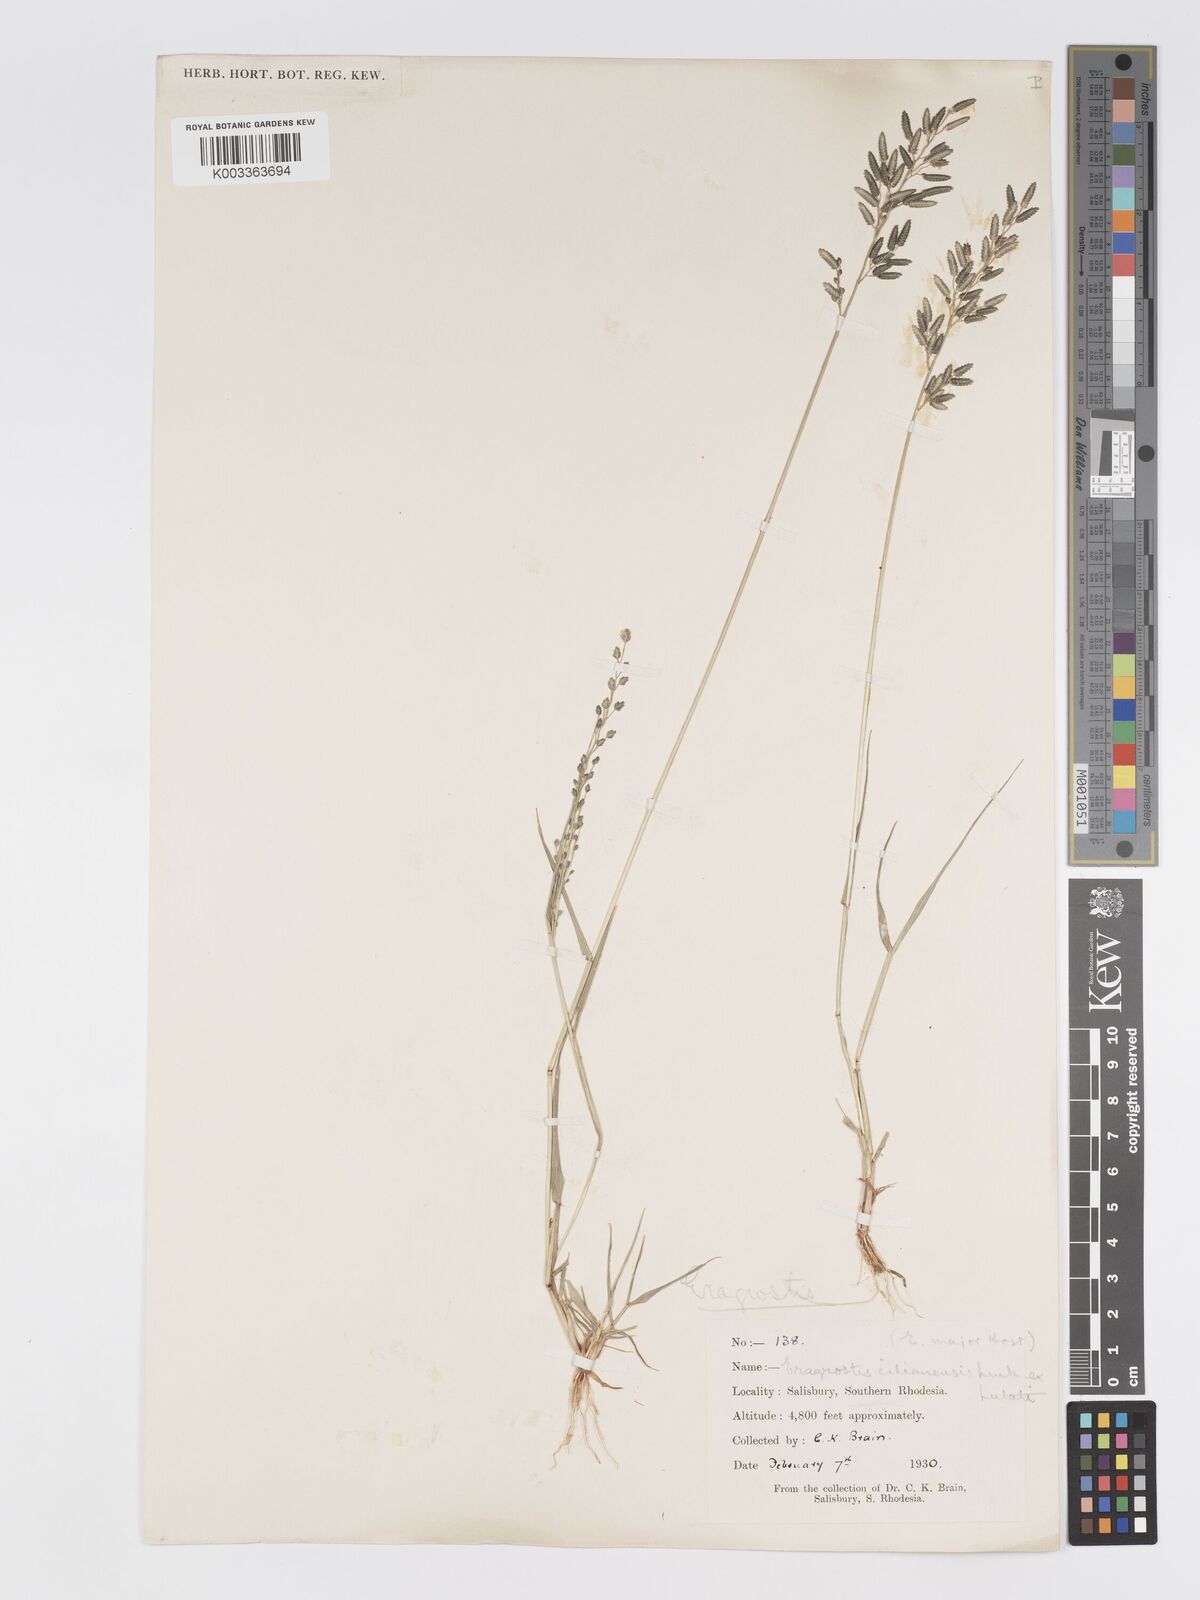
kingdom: Plantae
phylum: Tracheophyta
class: Liliopsida
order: Poales
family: Poaceae
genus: Eragrostis
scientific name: Eragrostis cilianensis
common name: Stinkgrass
